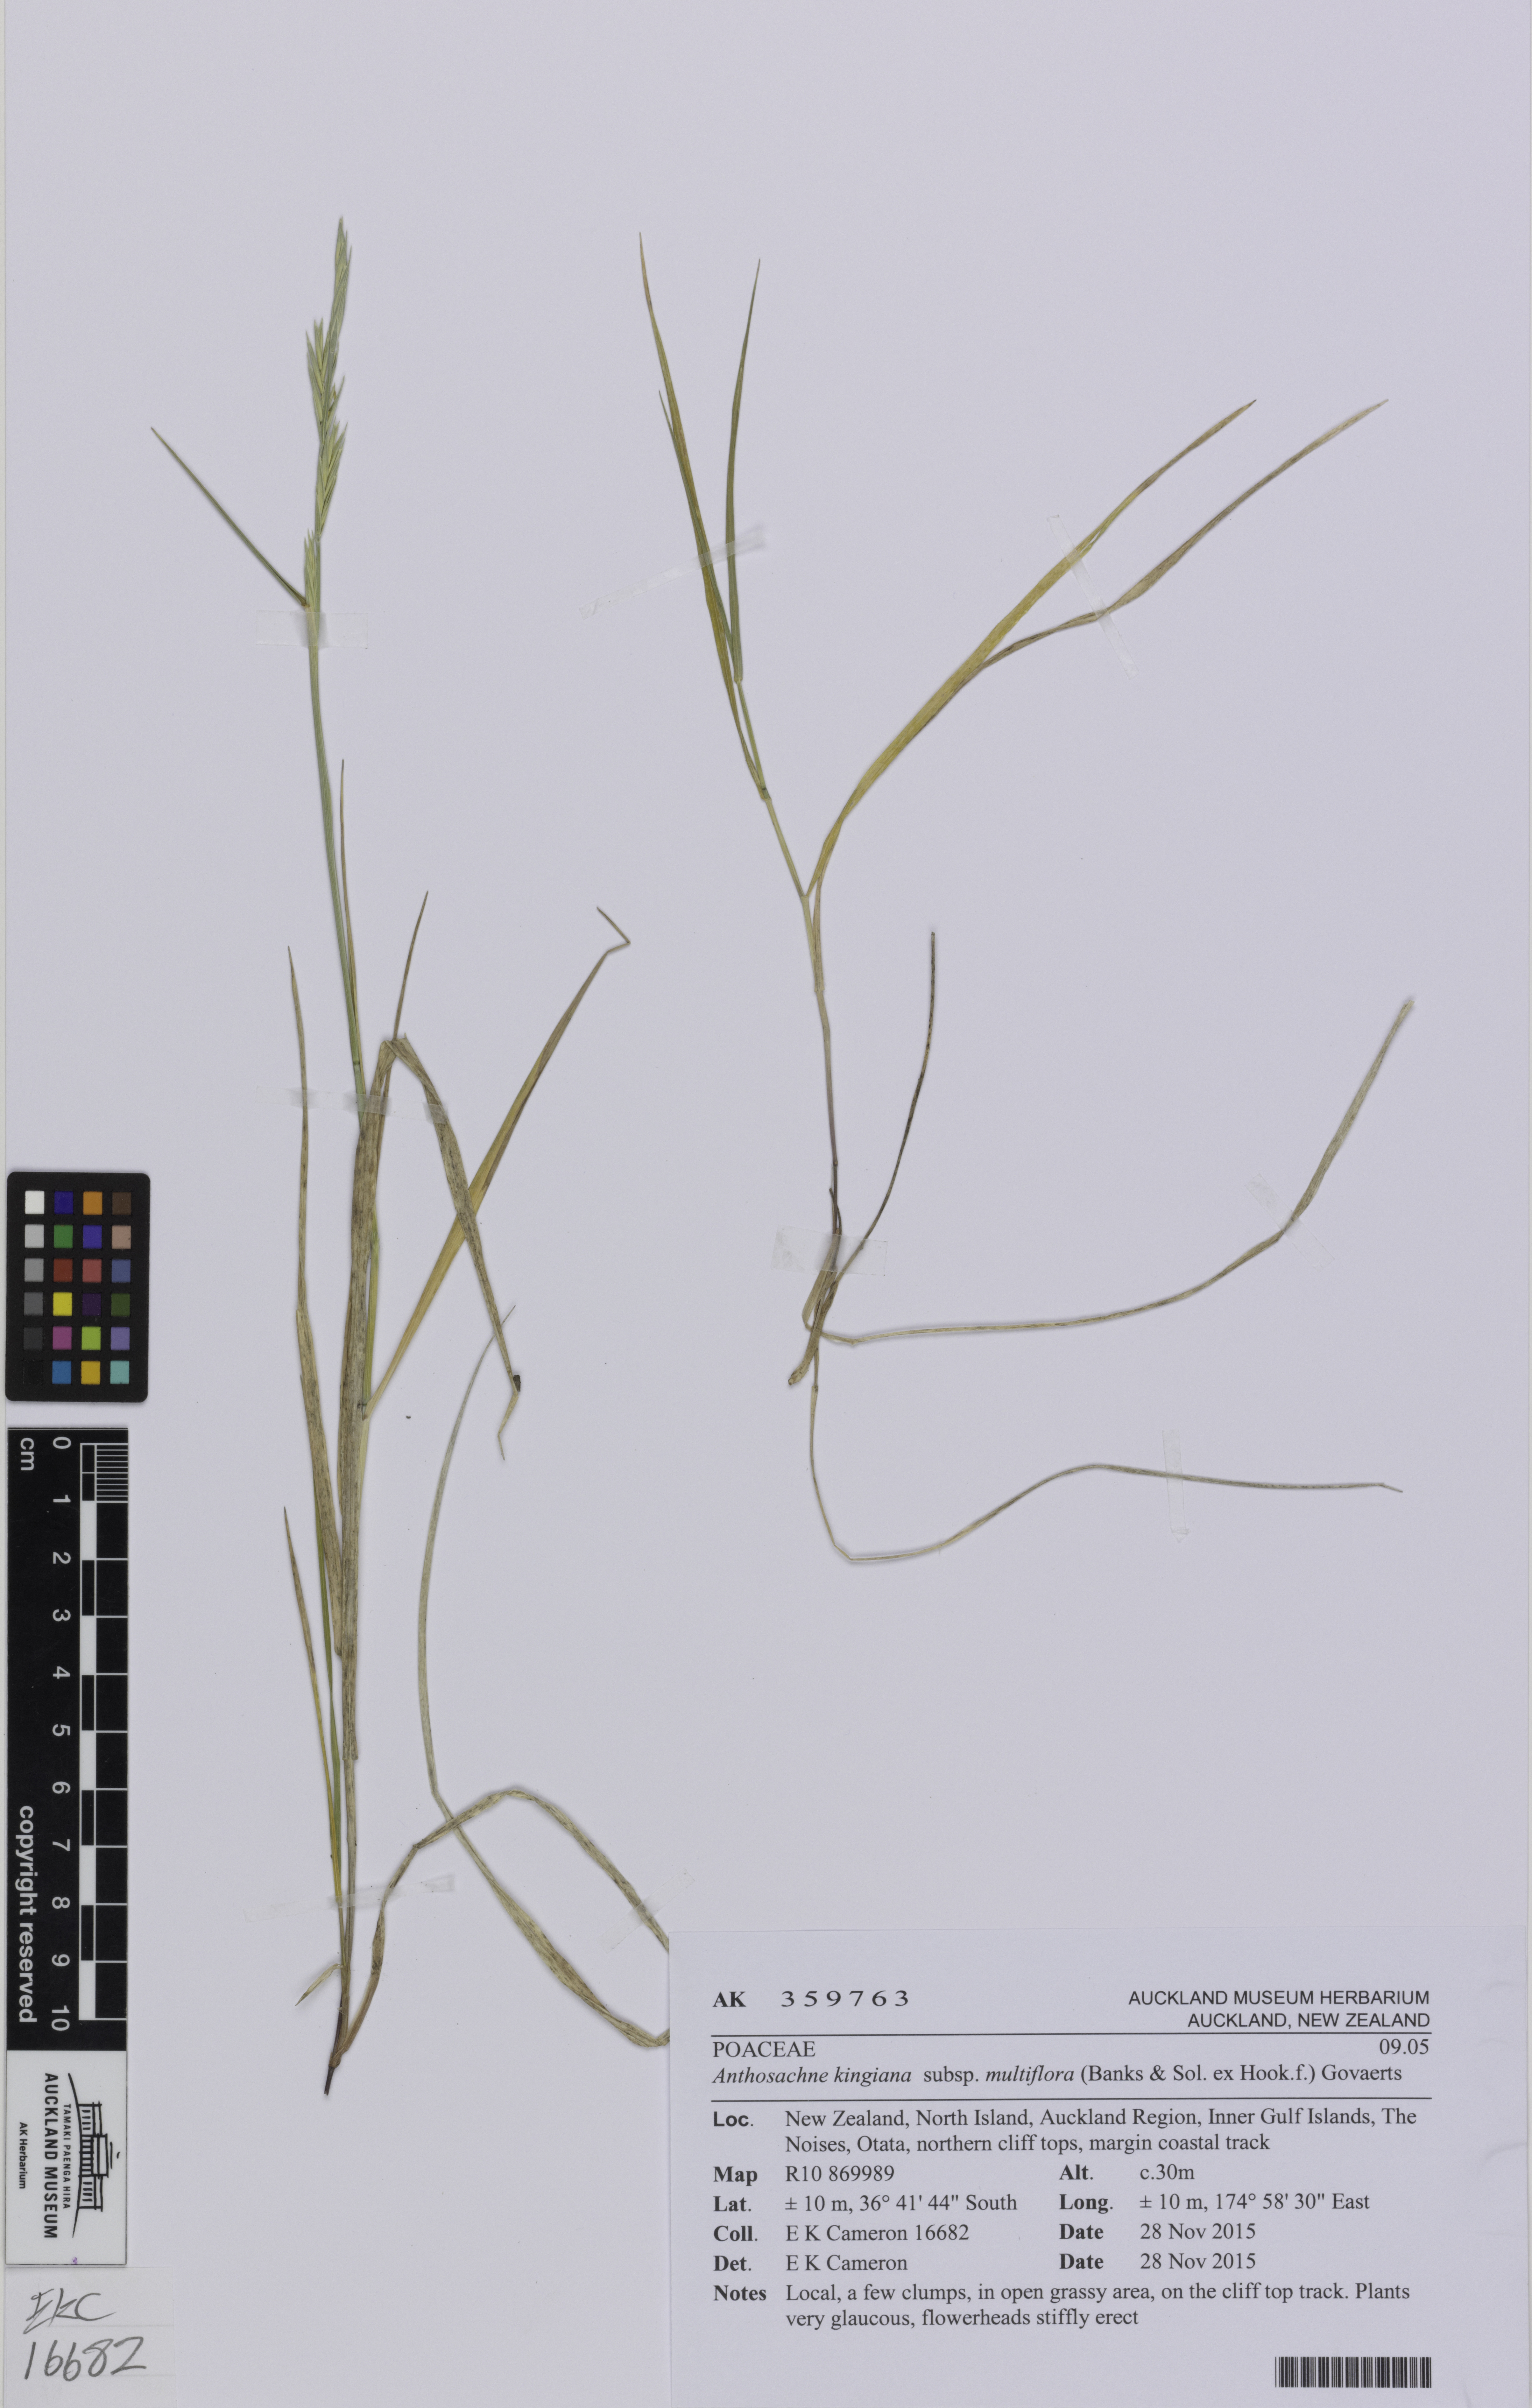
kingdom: Plantae
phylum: Tracheophyta
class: Liliopsida
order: Poales
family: Poaceae
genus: Anthosachne
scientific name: Anthosachne kingiana
